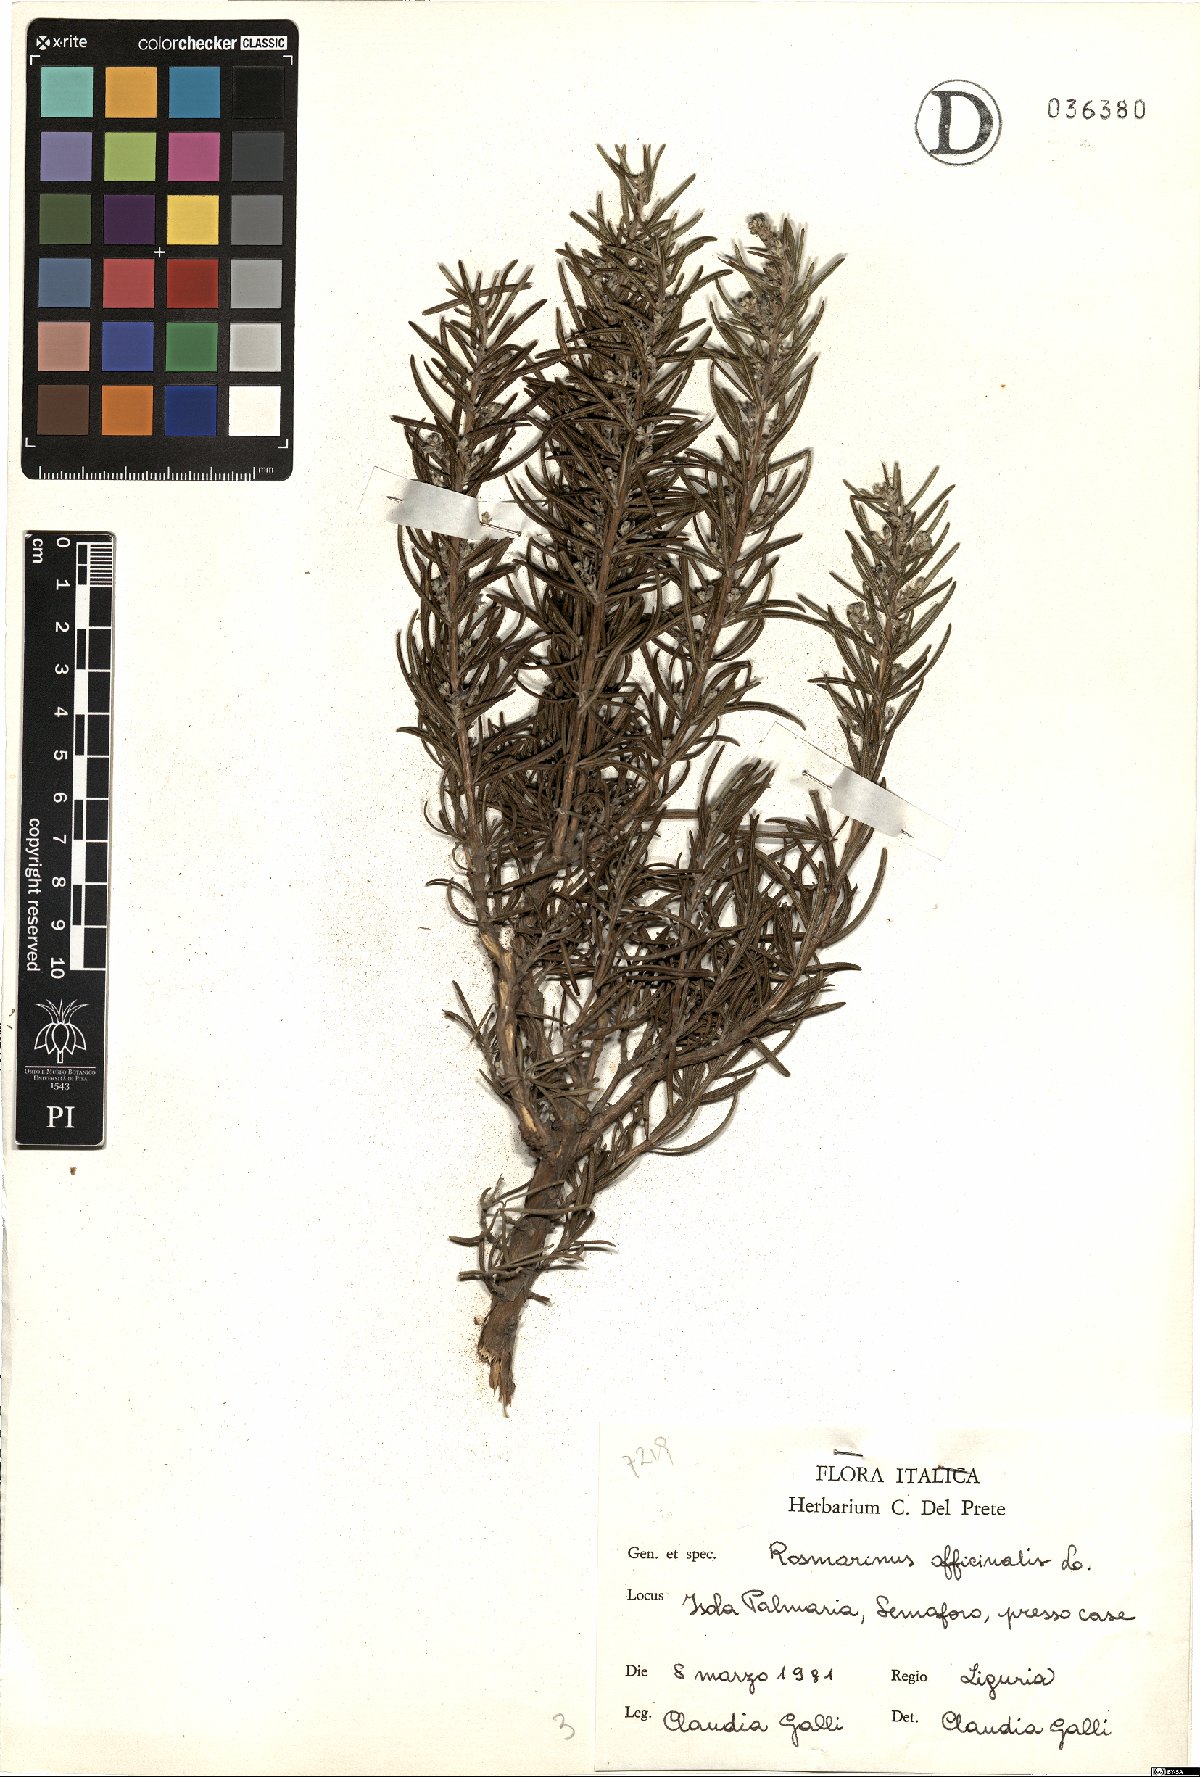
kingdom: Plantae
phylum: Tracheophyta
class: Magnoliopsida
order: Lamiales
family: Lamiaceae
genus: Salvia
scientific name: Salvia rosmarinus
